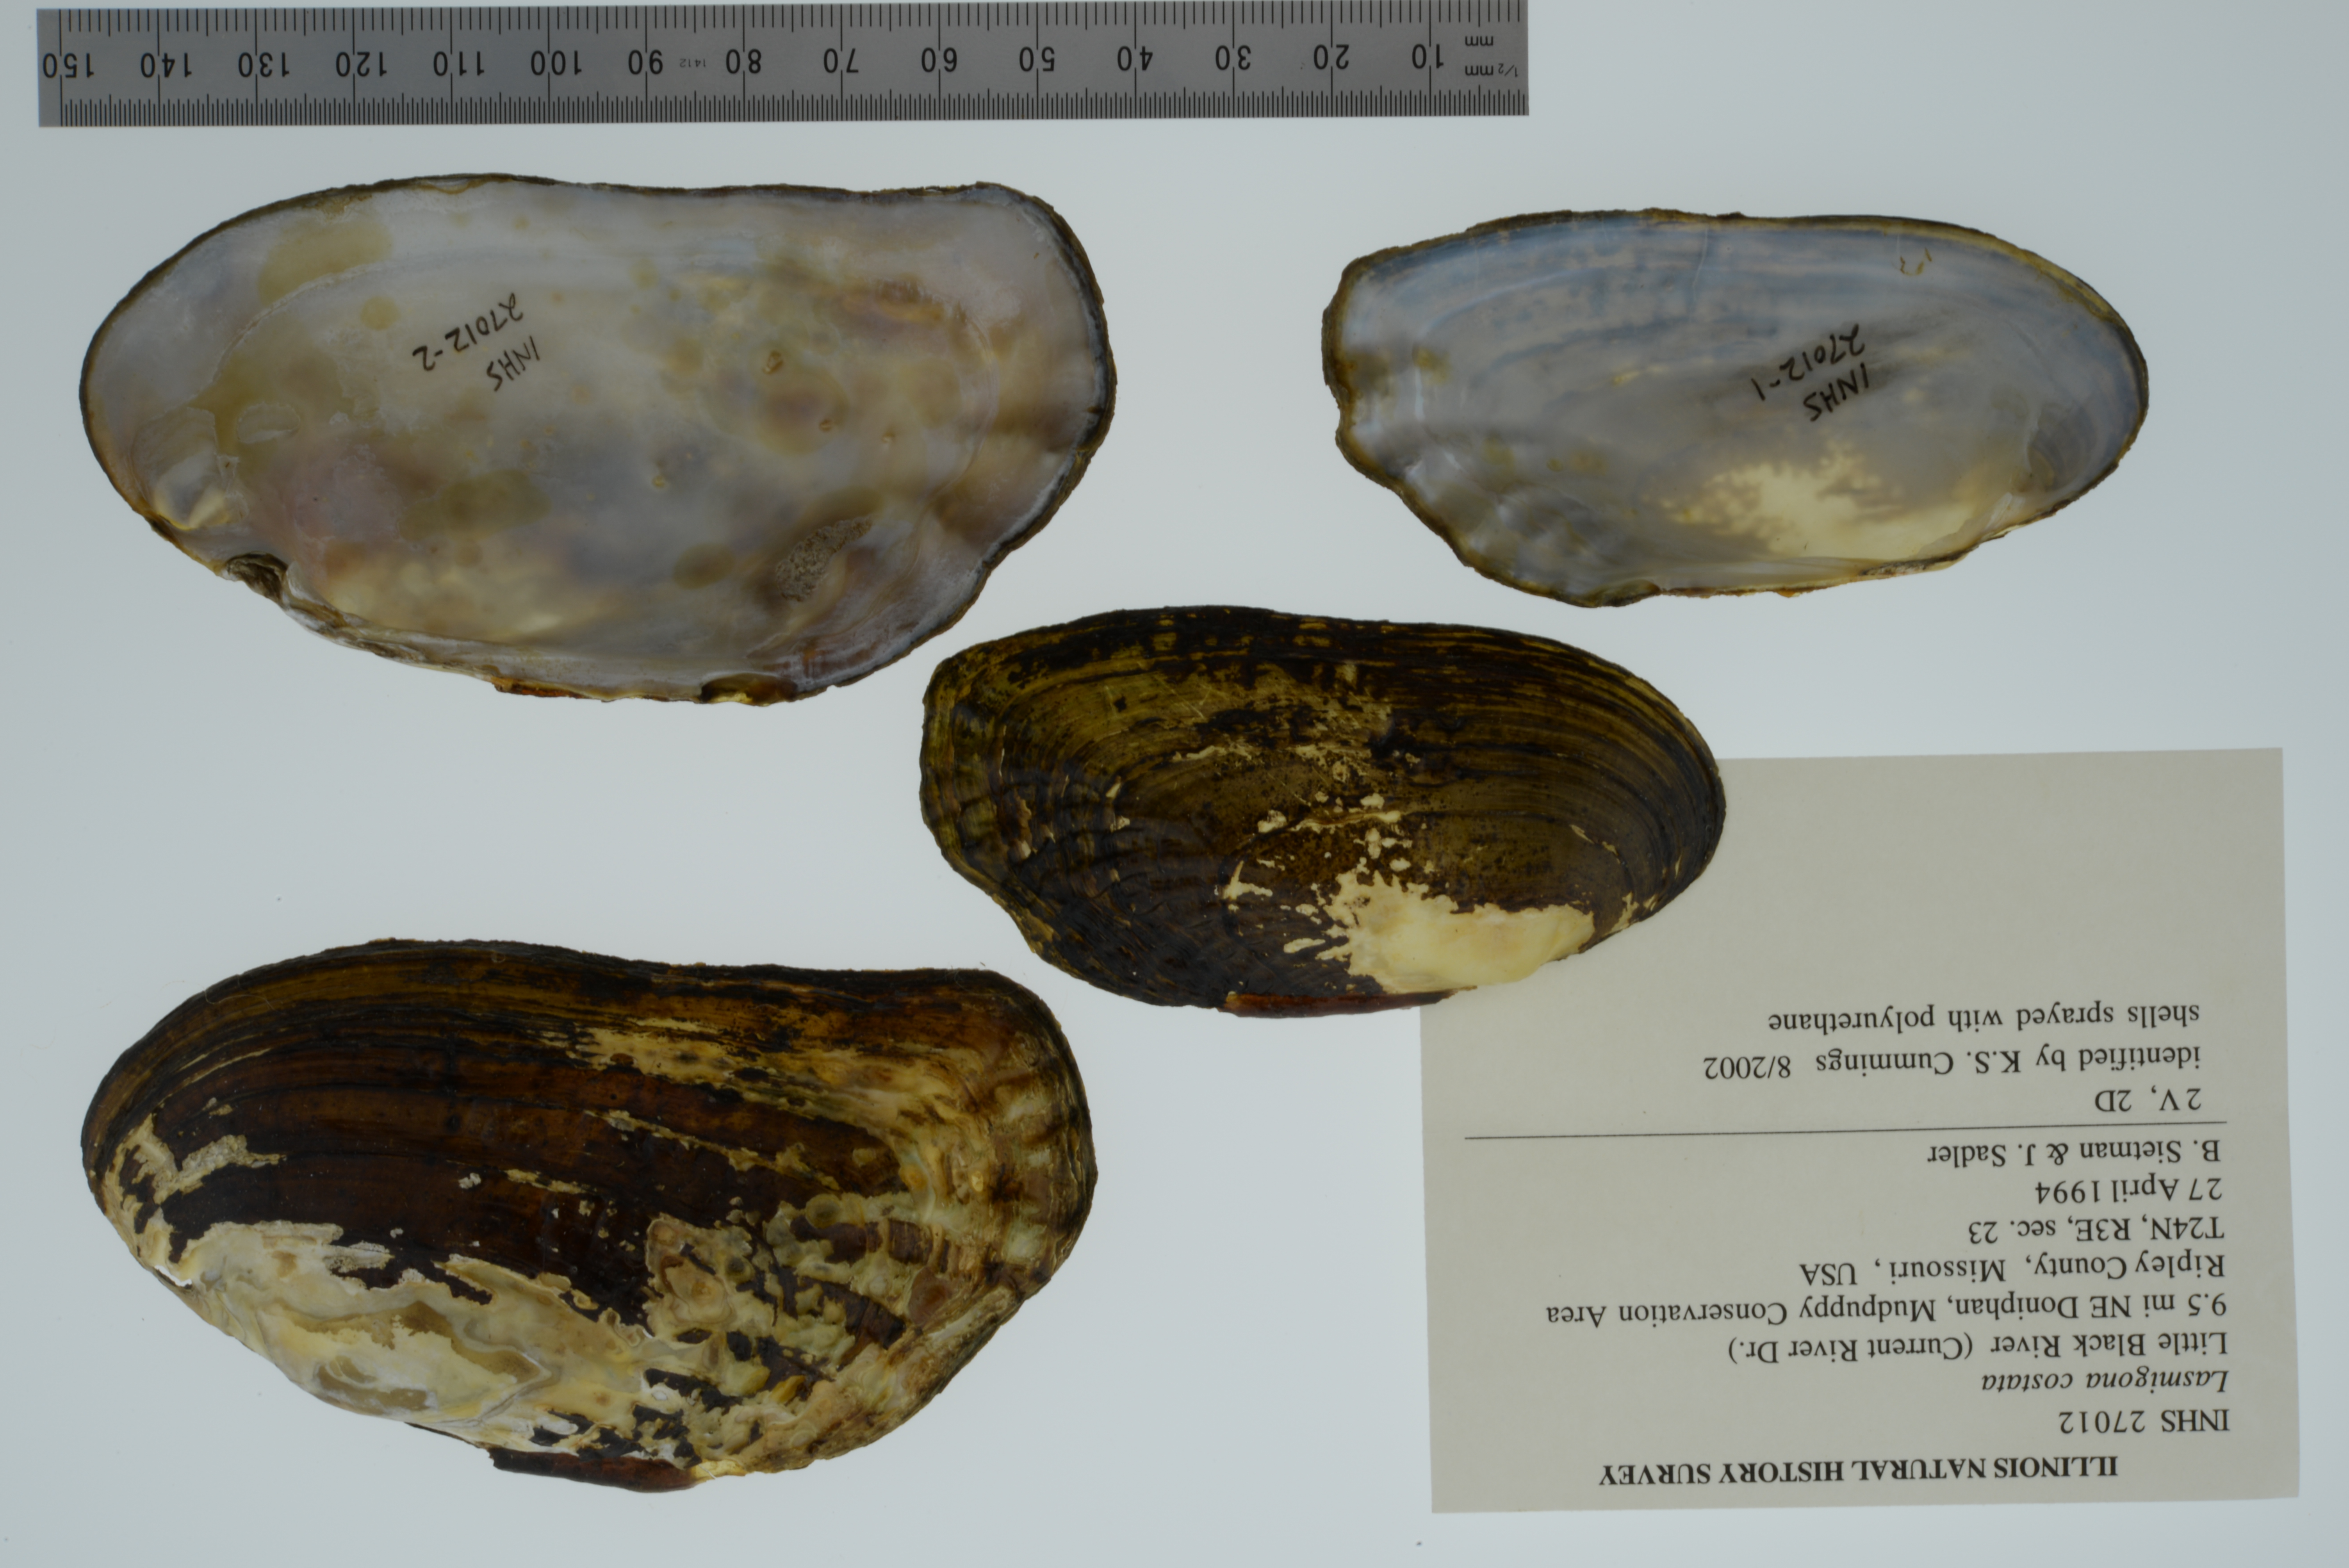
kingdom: Animalia
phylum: Mollusca
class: Bivalvia
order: Unionida
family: Unionidae
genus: Lasmigona
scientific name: Lasmigona costata
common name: Flutedshell
